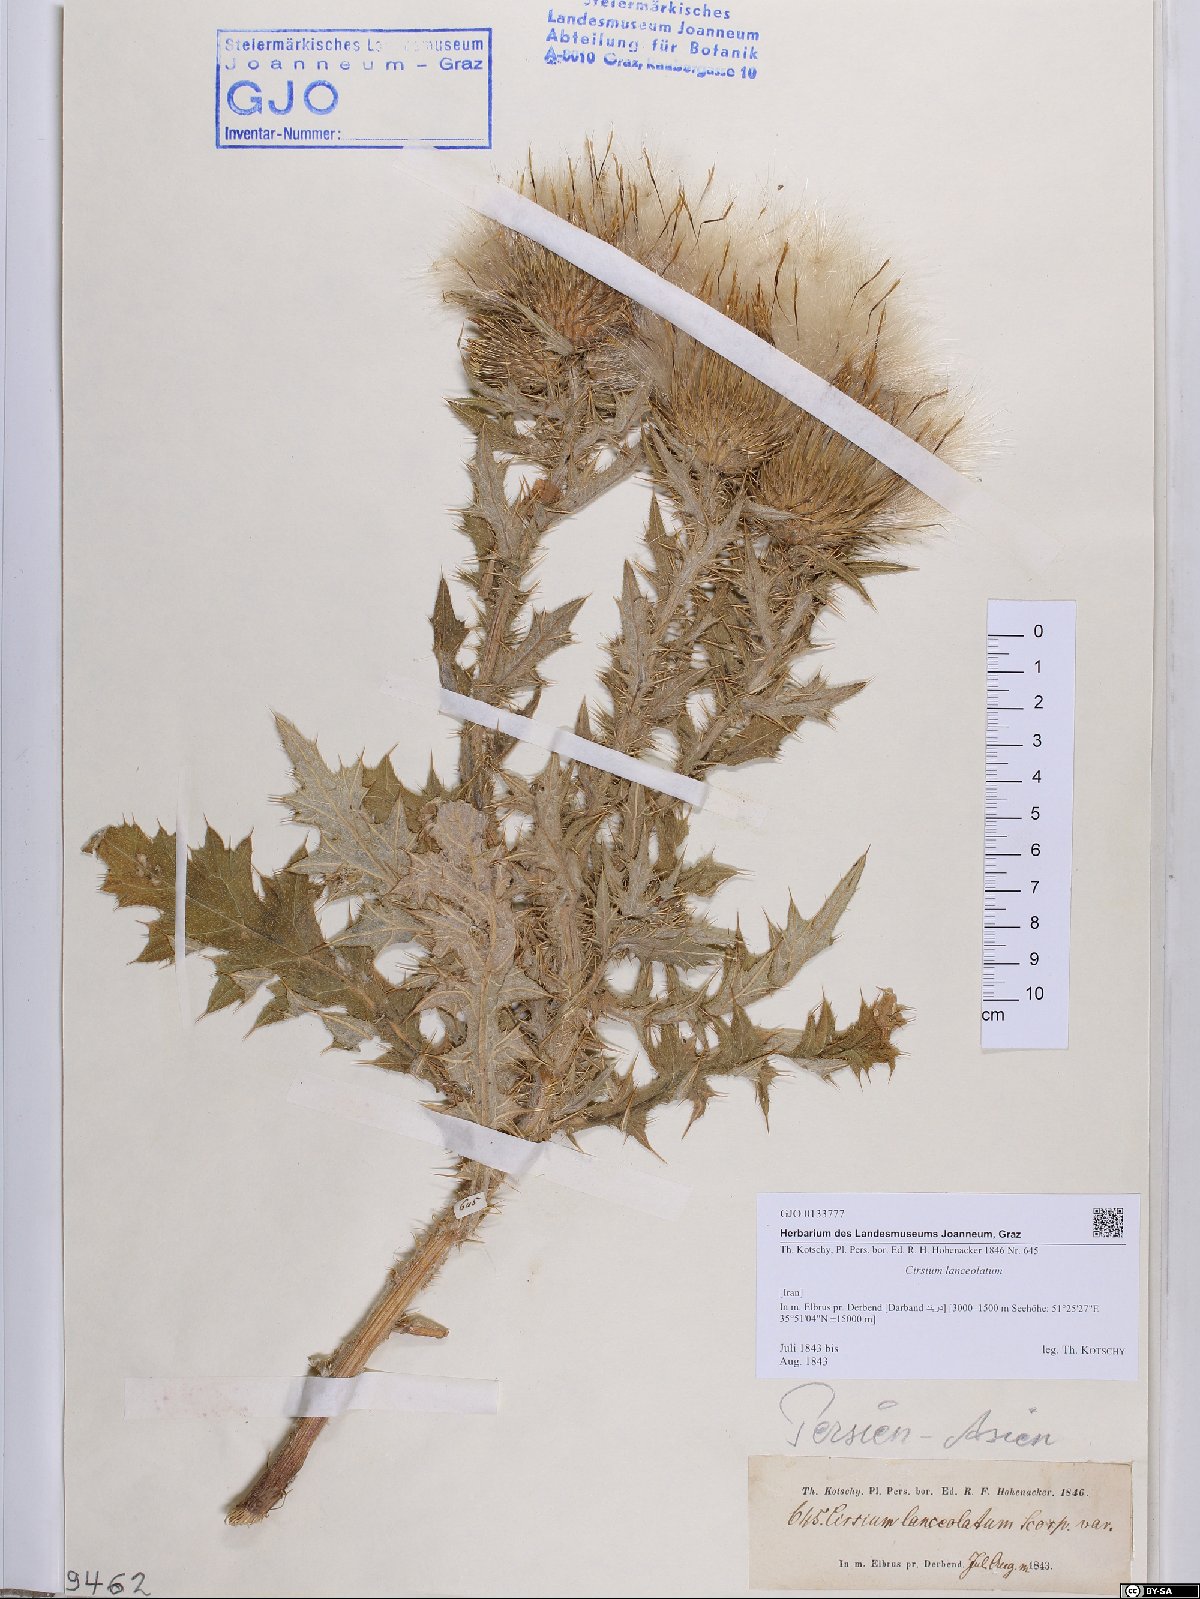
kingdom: Plantae
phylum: Tracheophyta
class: Magnoliopsida
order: Asterales
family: Asteraceae
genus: Cirsium
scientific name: Cirsium vulgare
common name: Bull thistle
